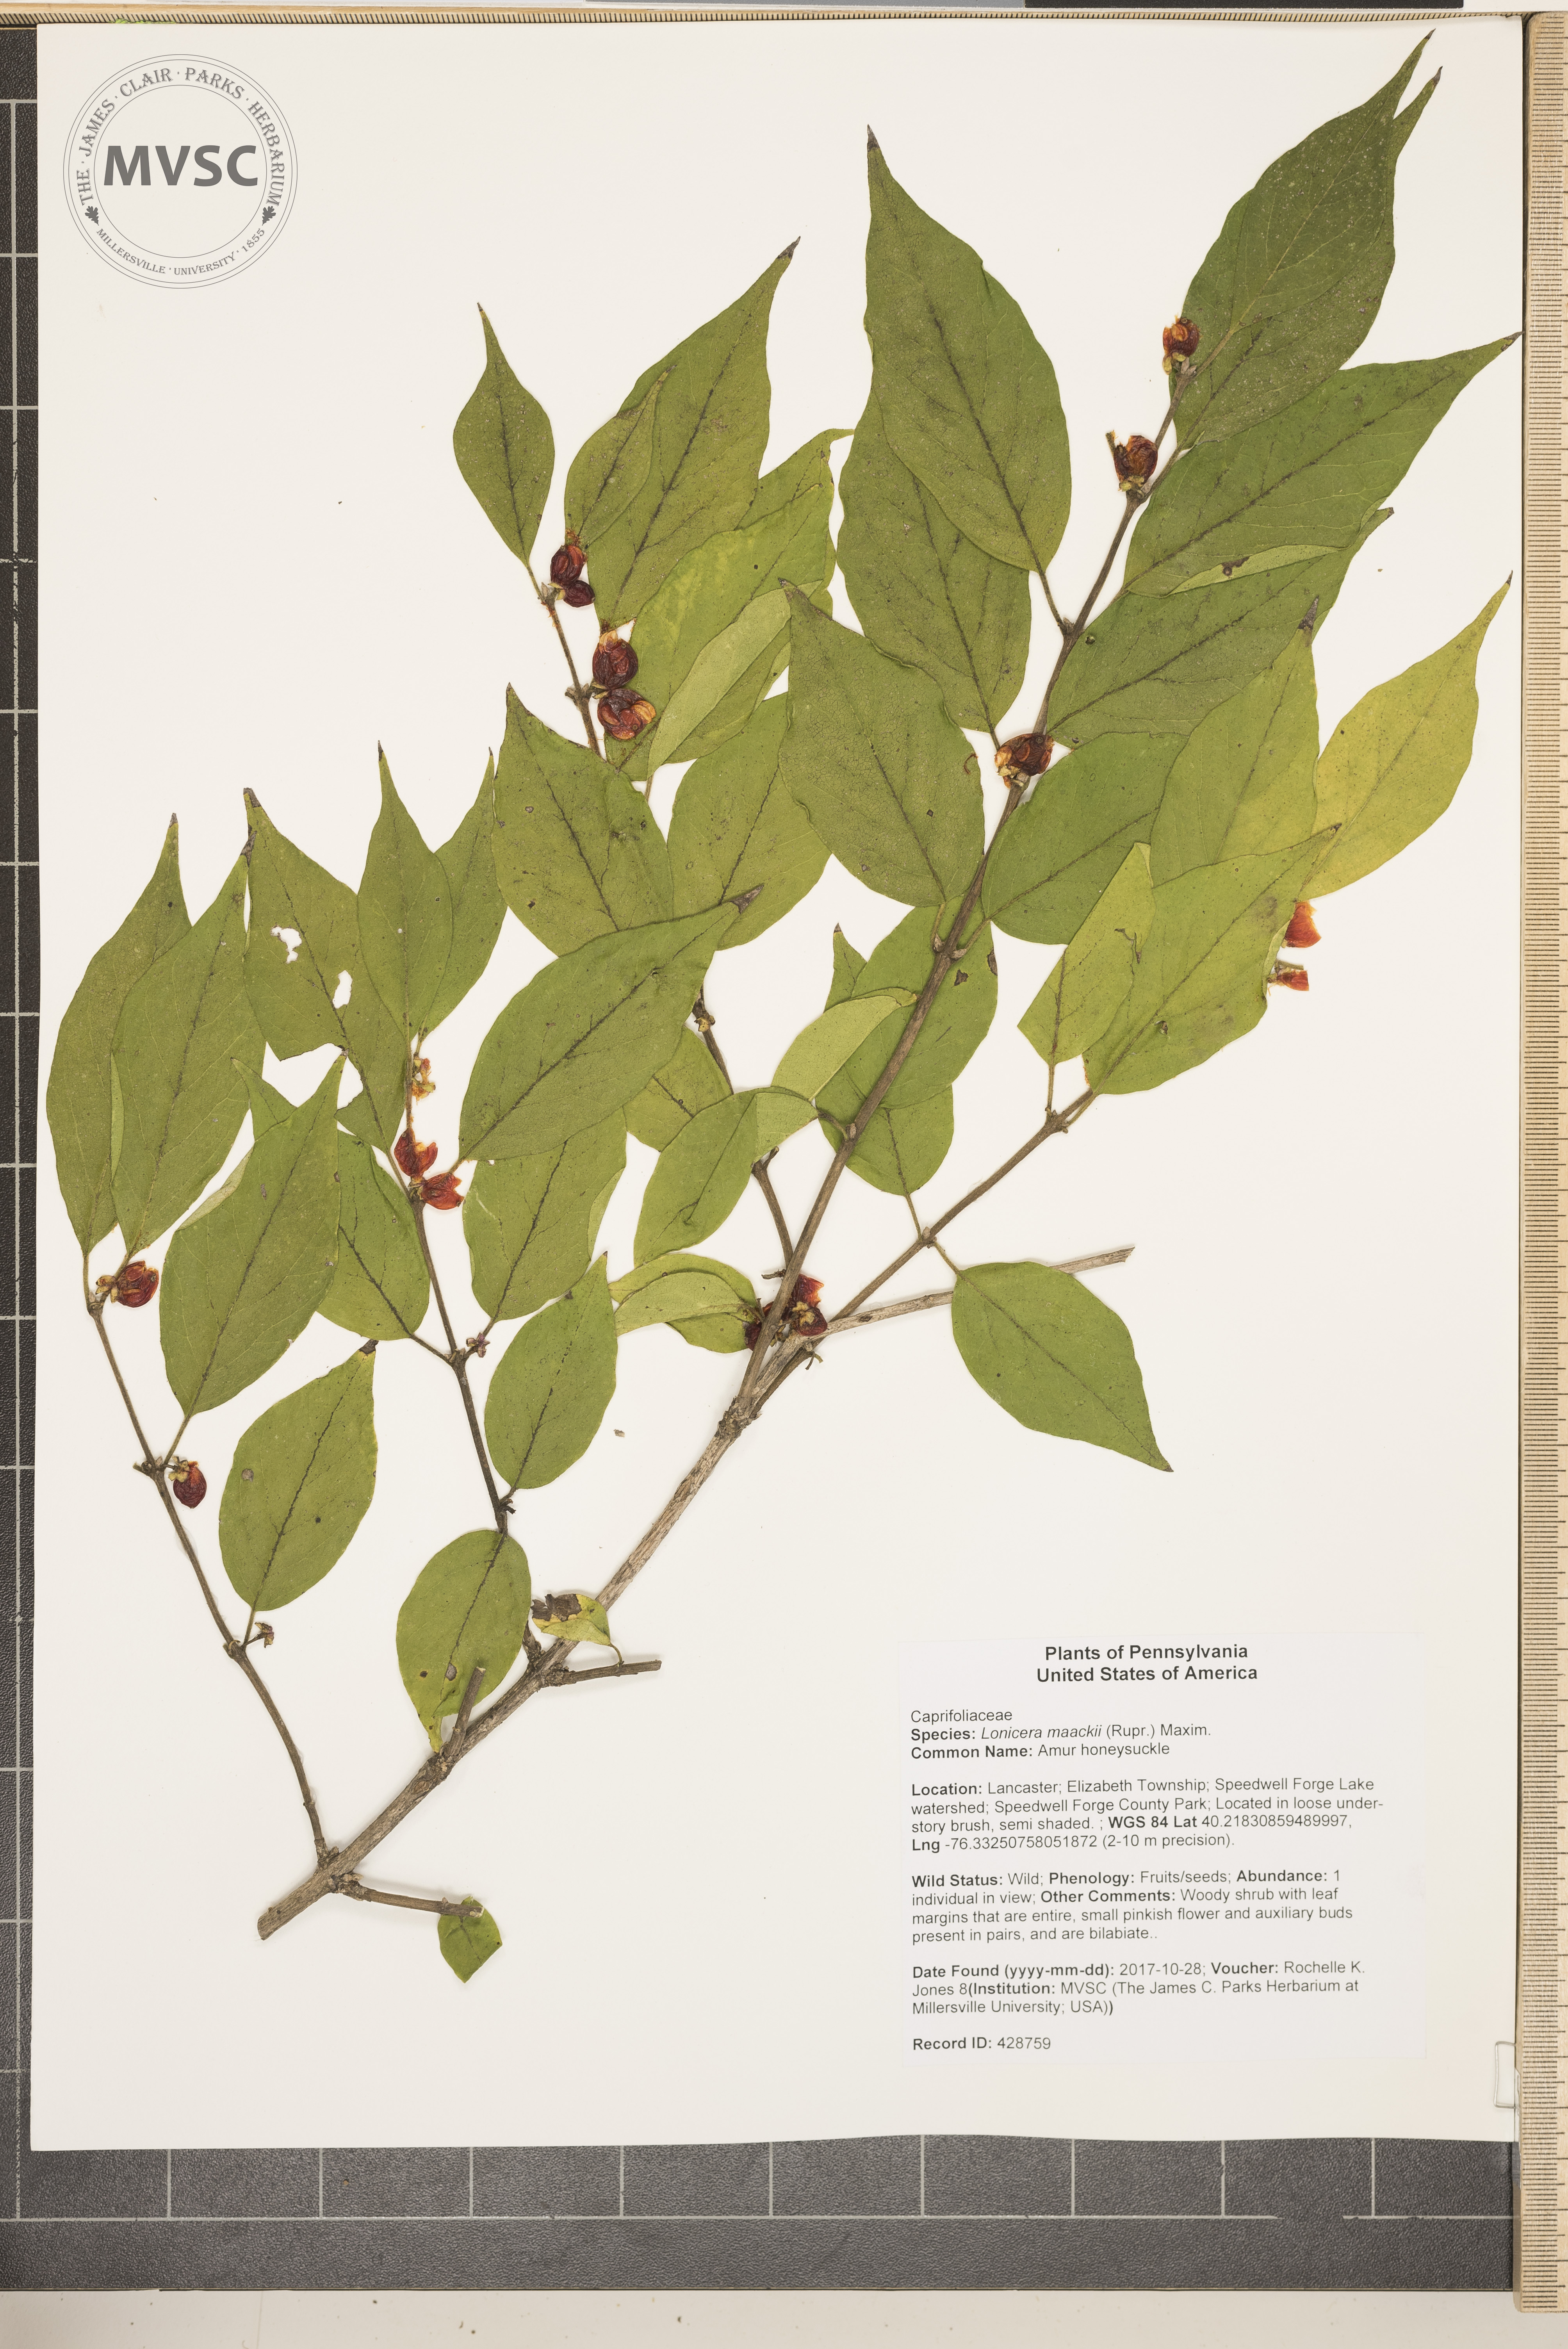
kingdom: Plantae
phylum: Tracheophyta
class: Magnoliopsida
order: Dipsacales
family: Caprifoliaceae
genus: Lonicera
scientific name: Lonicera maackii
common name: Amur honeysuckle
